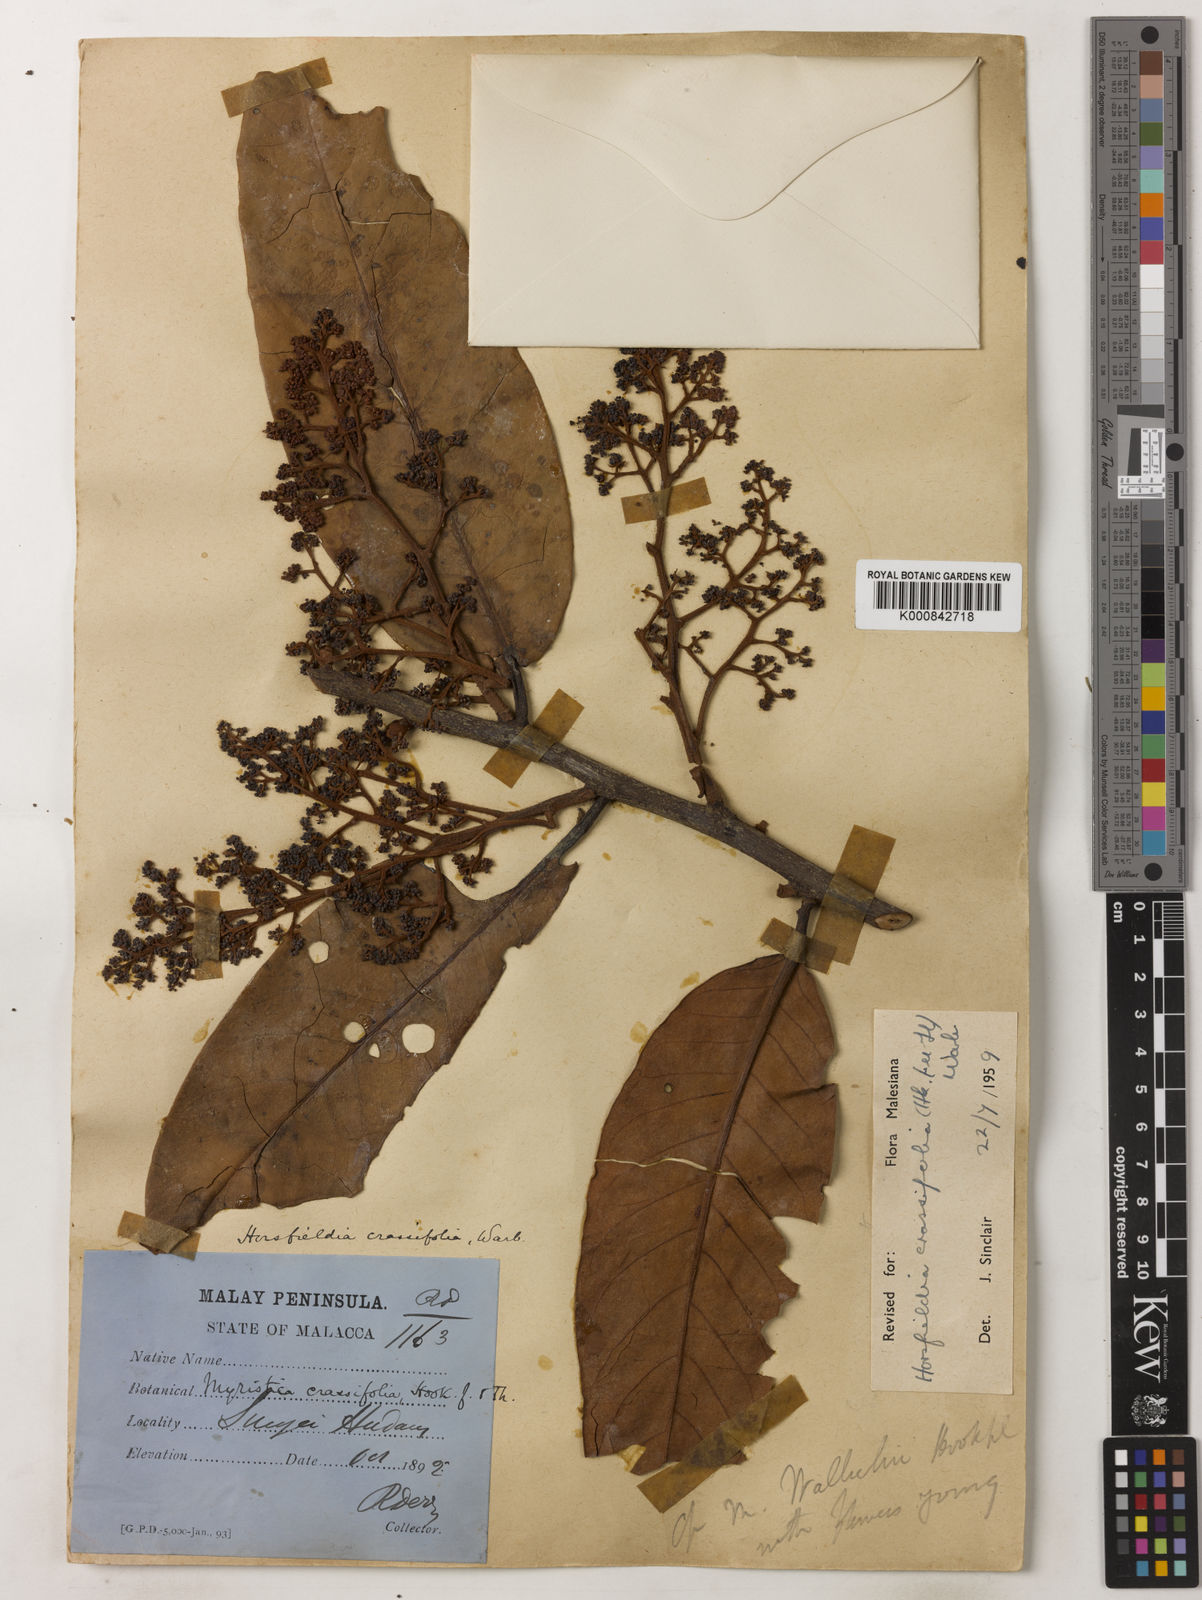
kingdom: Plantae
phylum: Tracheophyta
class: Magnoliopsida
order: Magnoliales
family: Myristicaceae
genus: Horsfieldia
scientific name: Horsfieldia crassifolia
